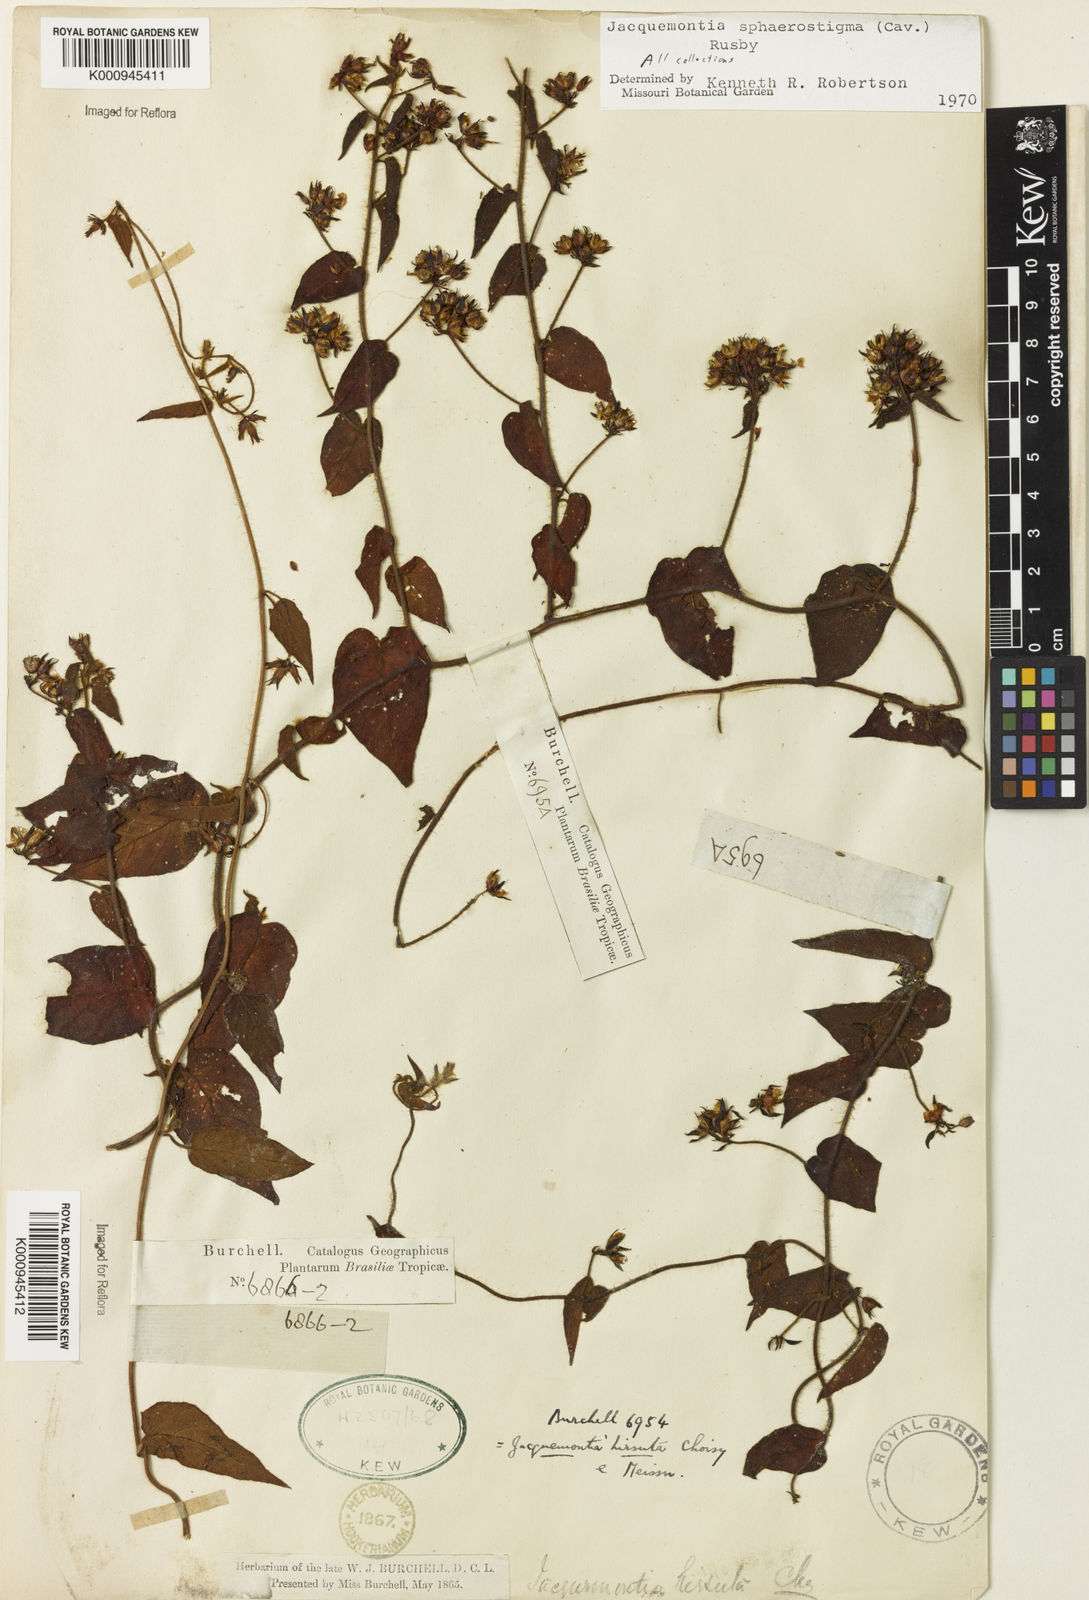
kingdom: Plantae
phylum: Tracheophyta
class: Magnoliopsida
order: Solanales
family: Convolvulaceae
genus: Jacquemontia
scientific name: Jacquemontia sphaerostigma
